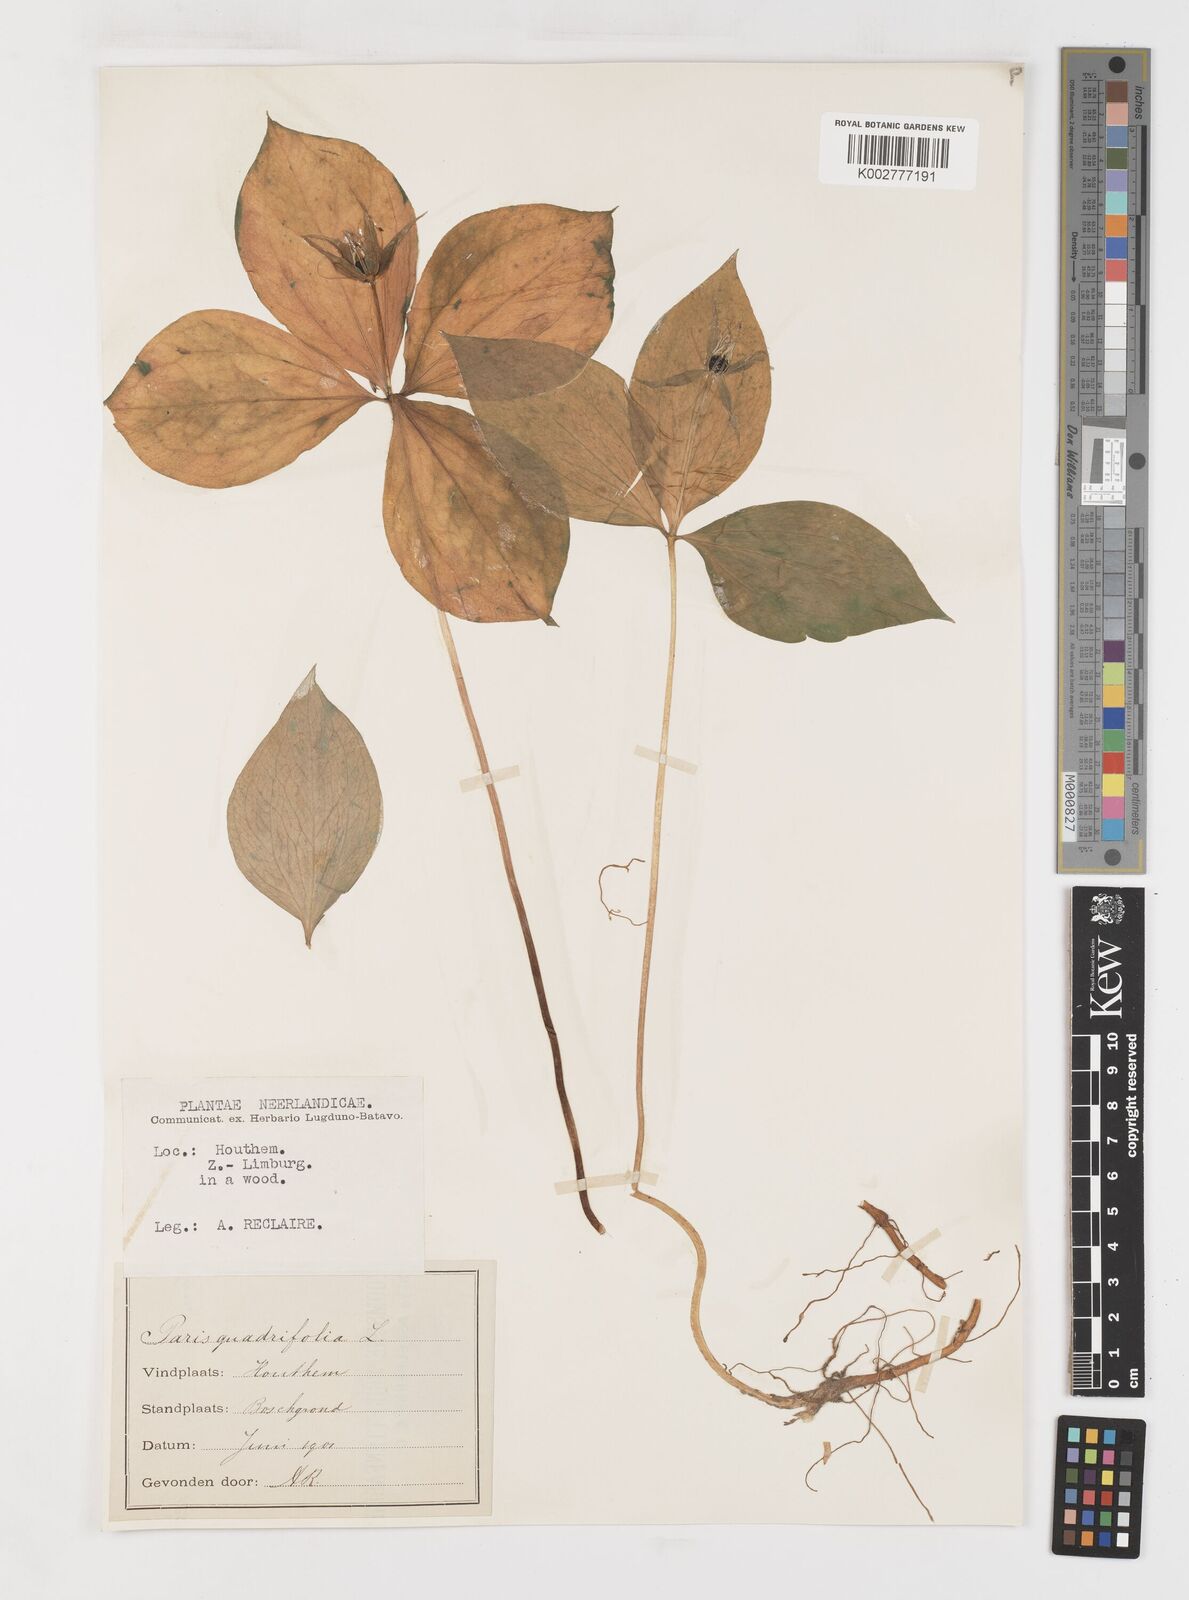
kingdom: Plantae
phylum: Tracheophyta
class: Liliopsida
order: Liliales
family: Melanthiaceae
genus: Paris
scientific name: Paris quadrifolia
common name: Herb-paris
